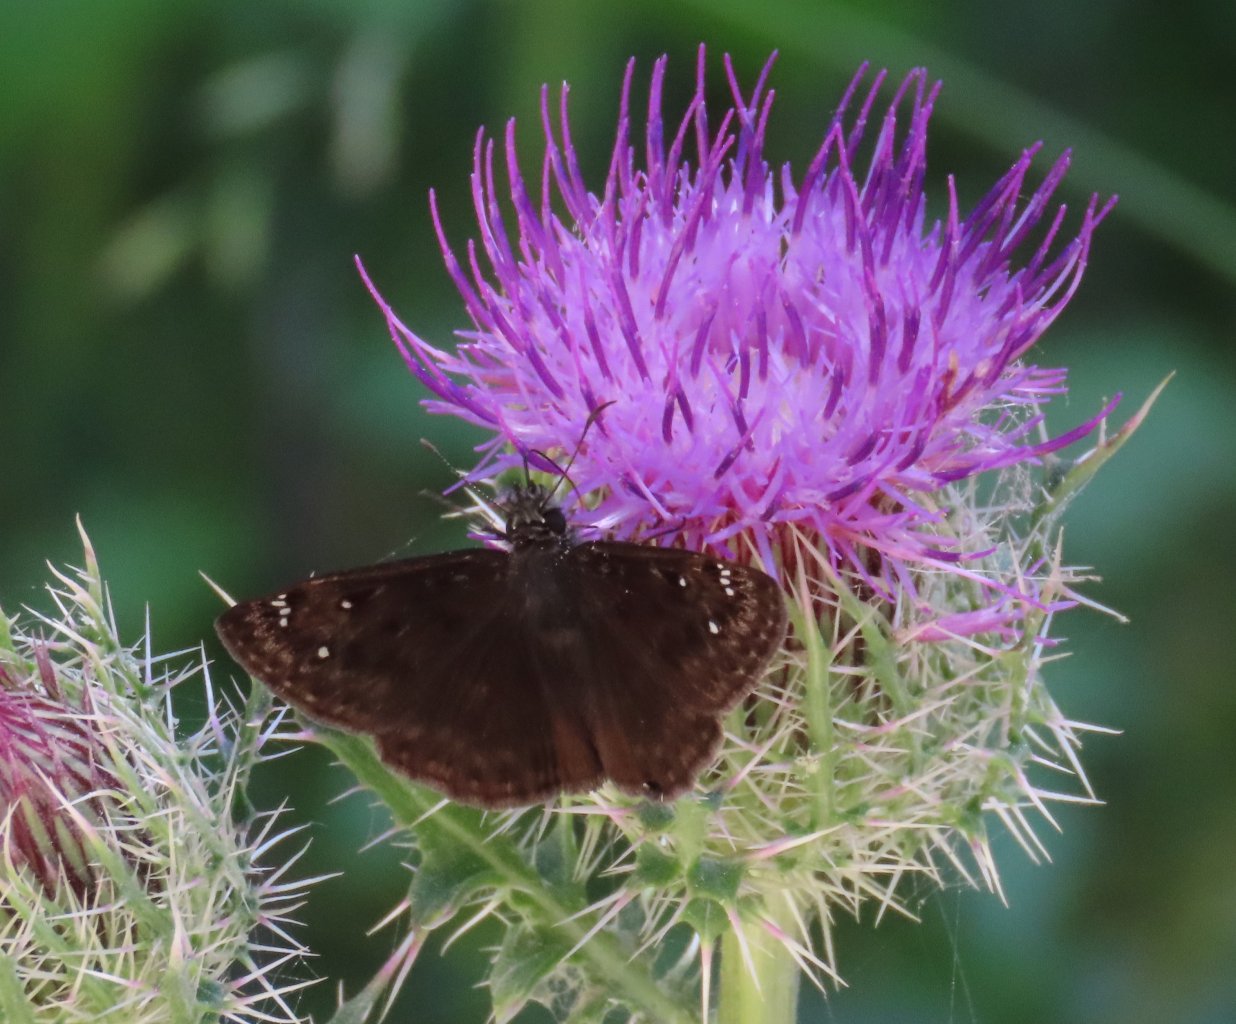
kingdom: Animalia
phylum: Arthropoda
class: Insecta
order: Lepidoptera
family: Hesperiidae
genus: Gesta
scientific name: Gesta
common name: Horace's Duskywing
